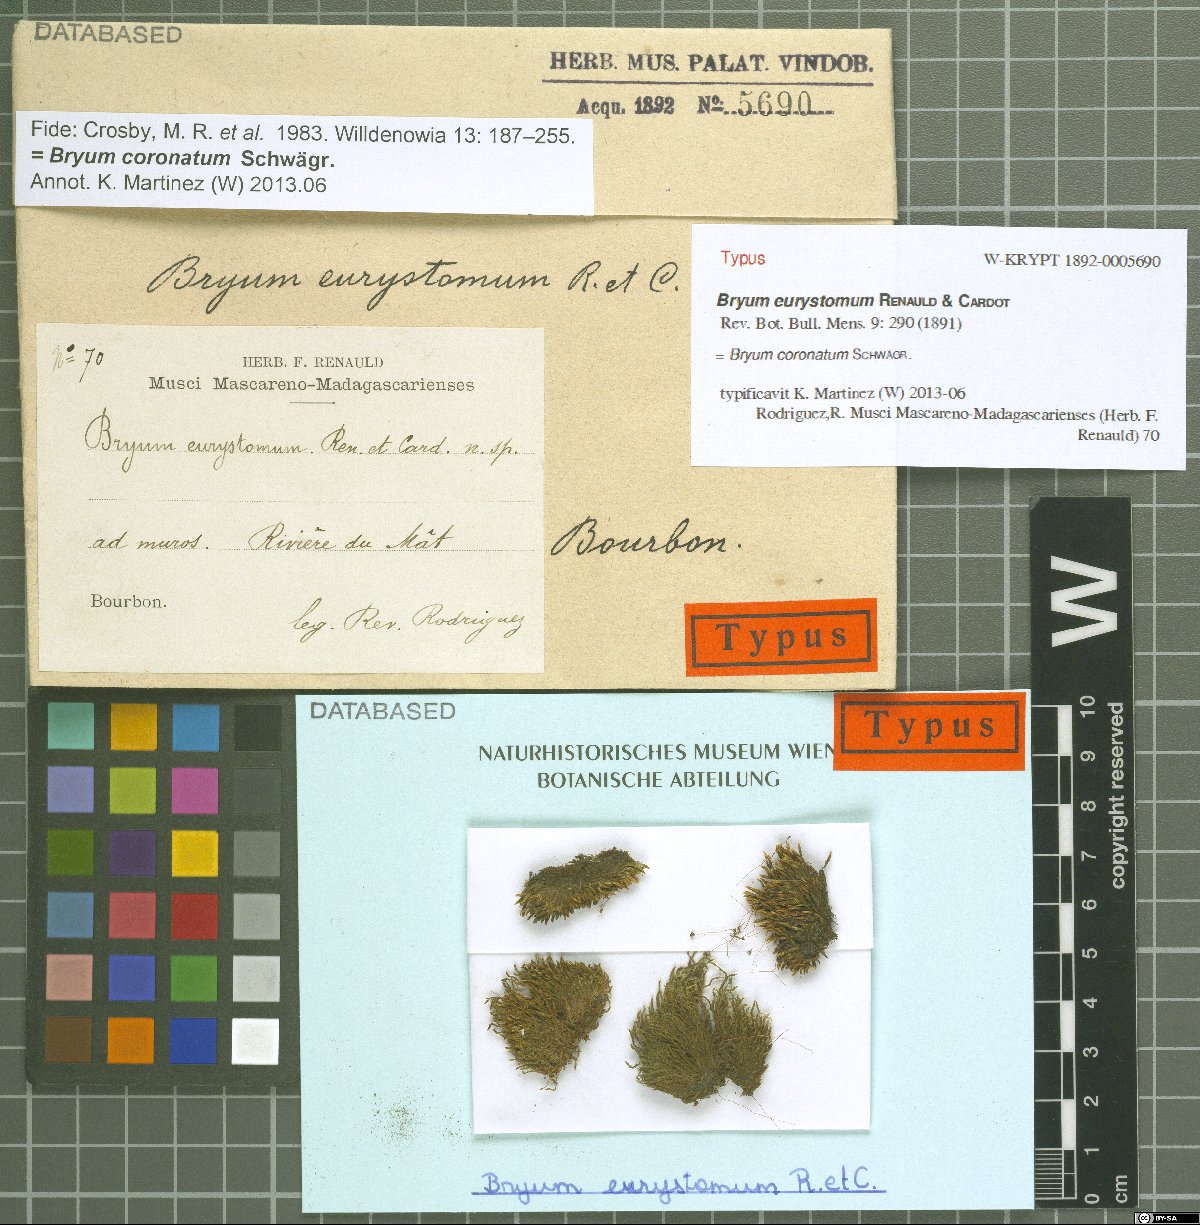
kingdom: Plantae
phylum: Bryophyta
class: Bryopsida
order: Bryales
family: Bryaceae
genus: Gemmabryum
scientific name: Gemmabryum coronatum
